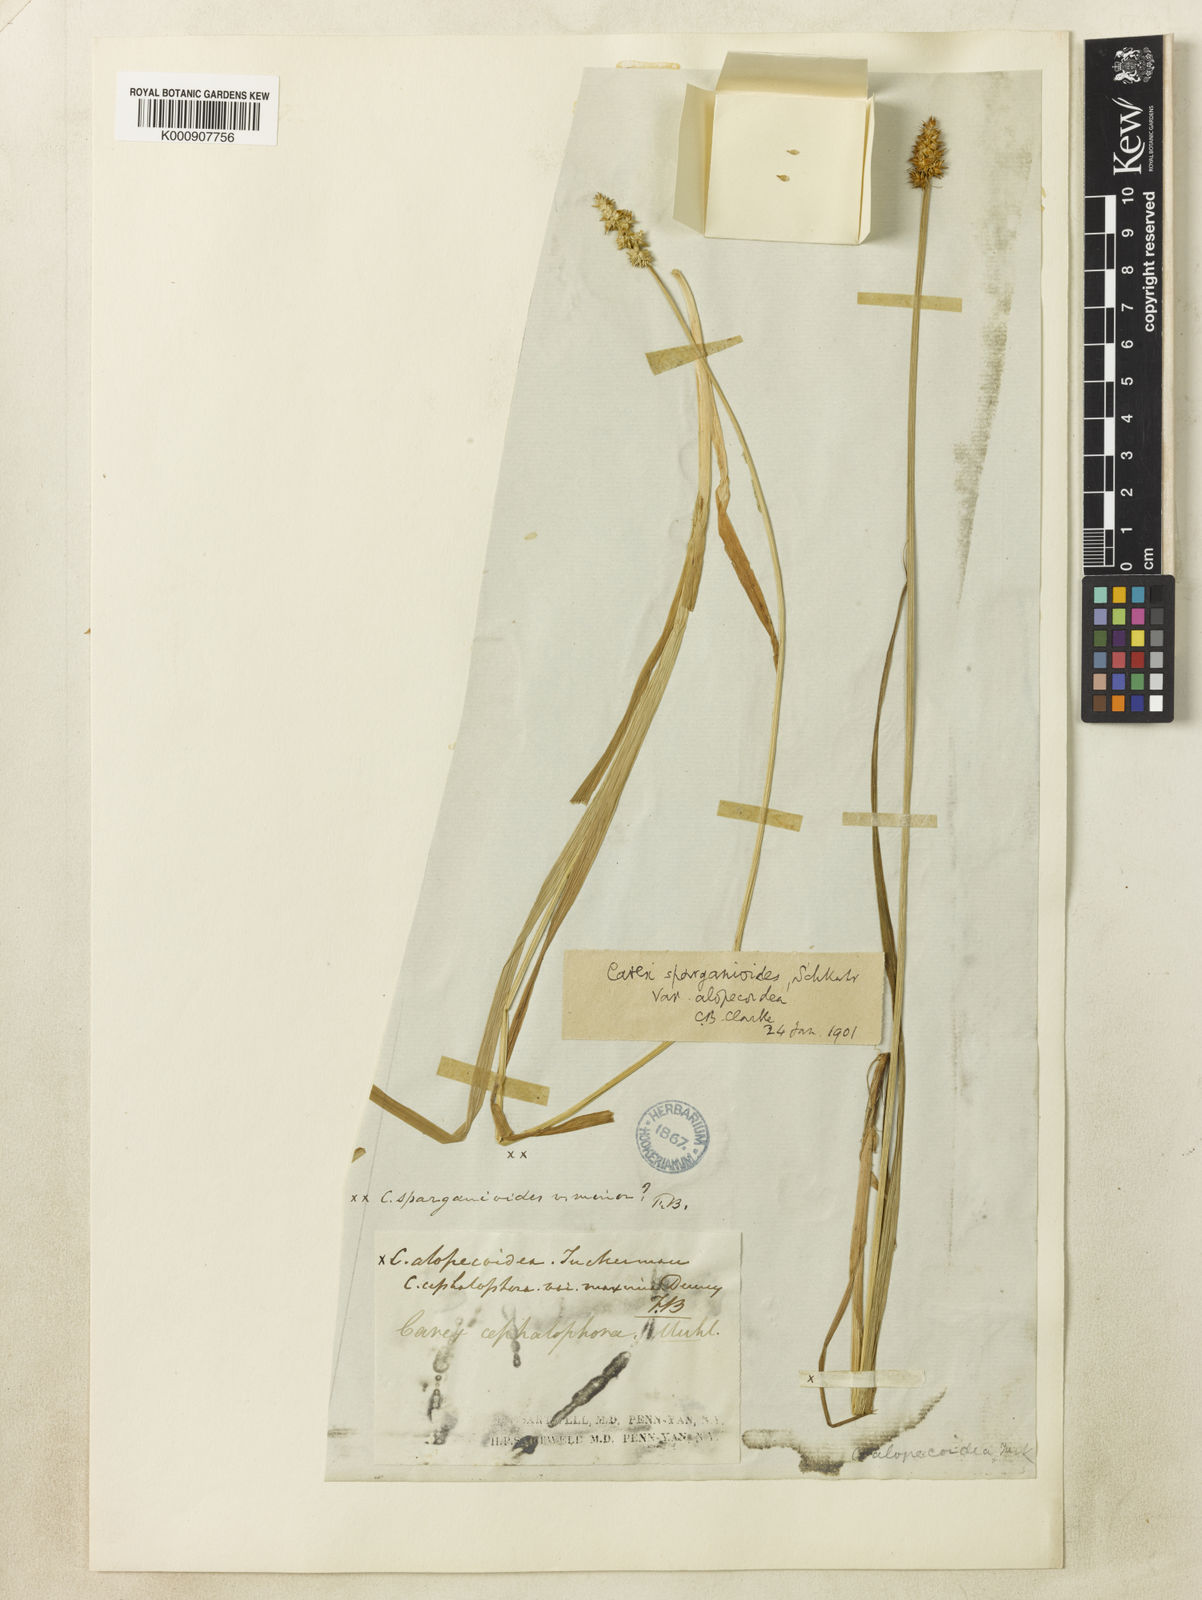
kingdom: Plantae
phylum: Tracheophyta
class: Liliopsida
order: Poales
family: Cyperaceae
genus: Carex
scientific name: Carex alopecoidea
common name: Brown-headed fox sedge
